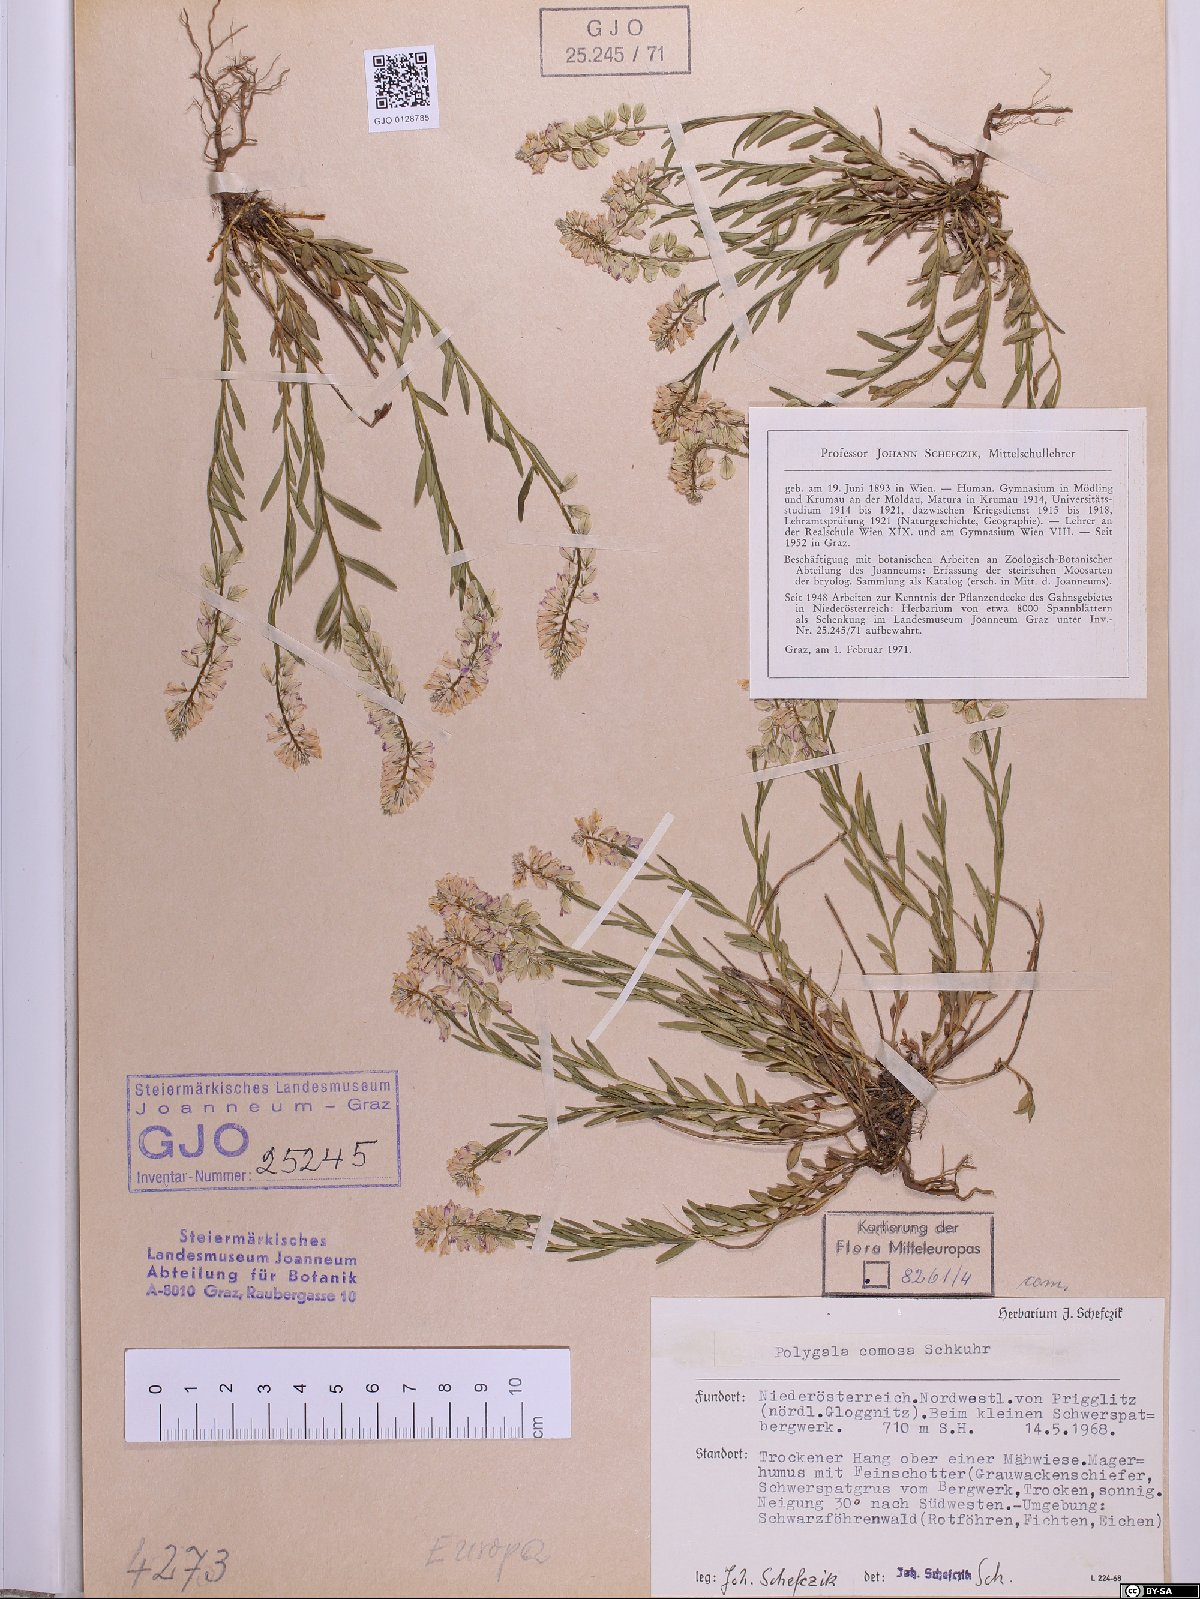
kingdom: Plantae
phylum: Tracheophyta
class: Magnoliopsida
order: Fabales
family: Polygalaceae
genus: Polygala
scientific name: Polygala comosa
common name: Tufted milkwort
